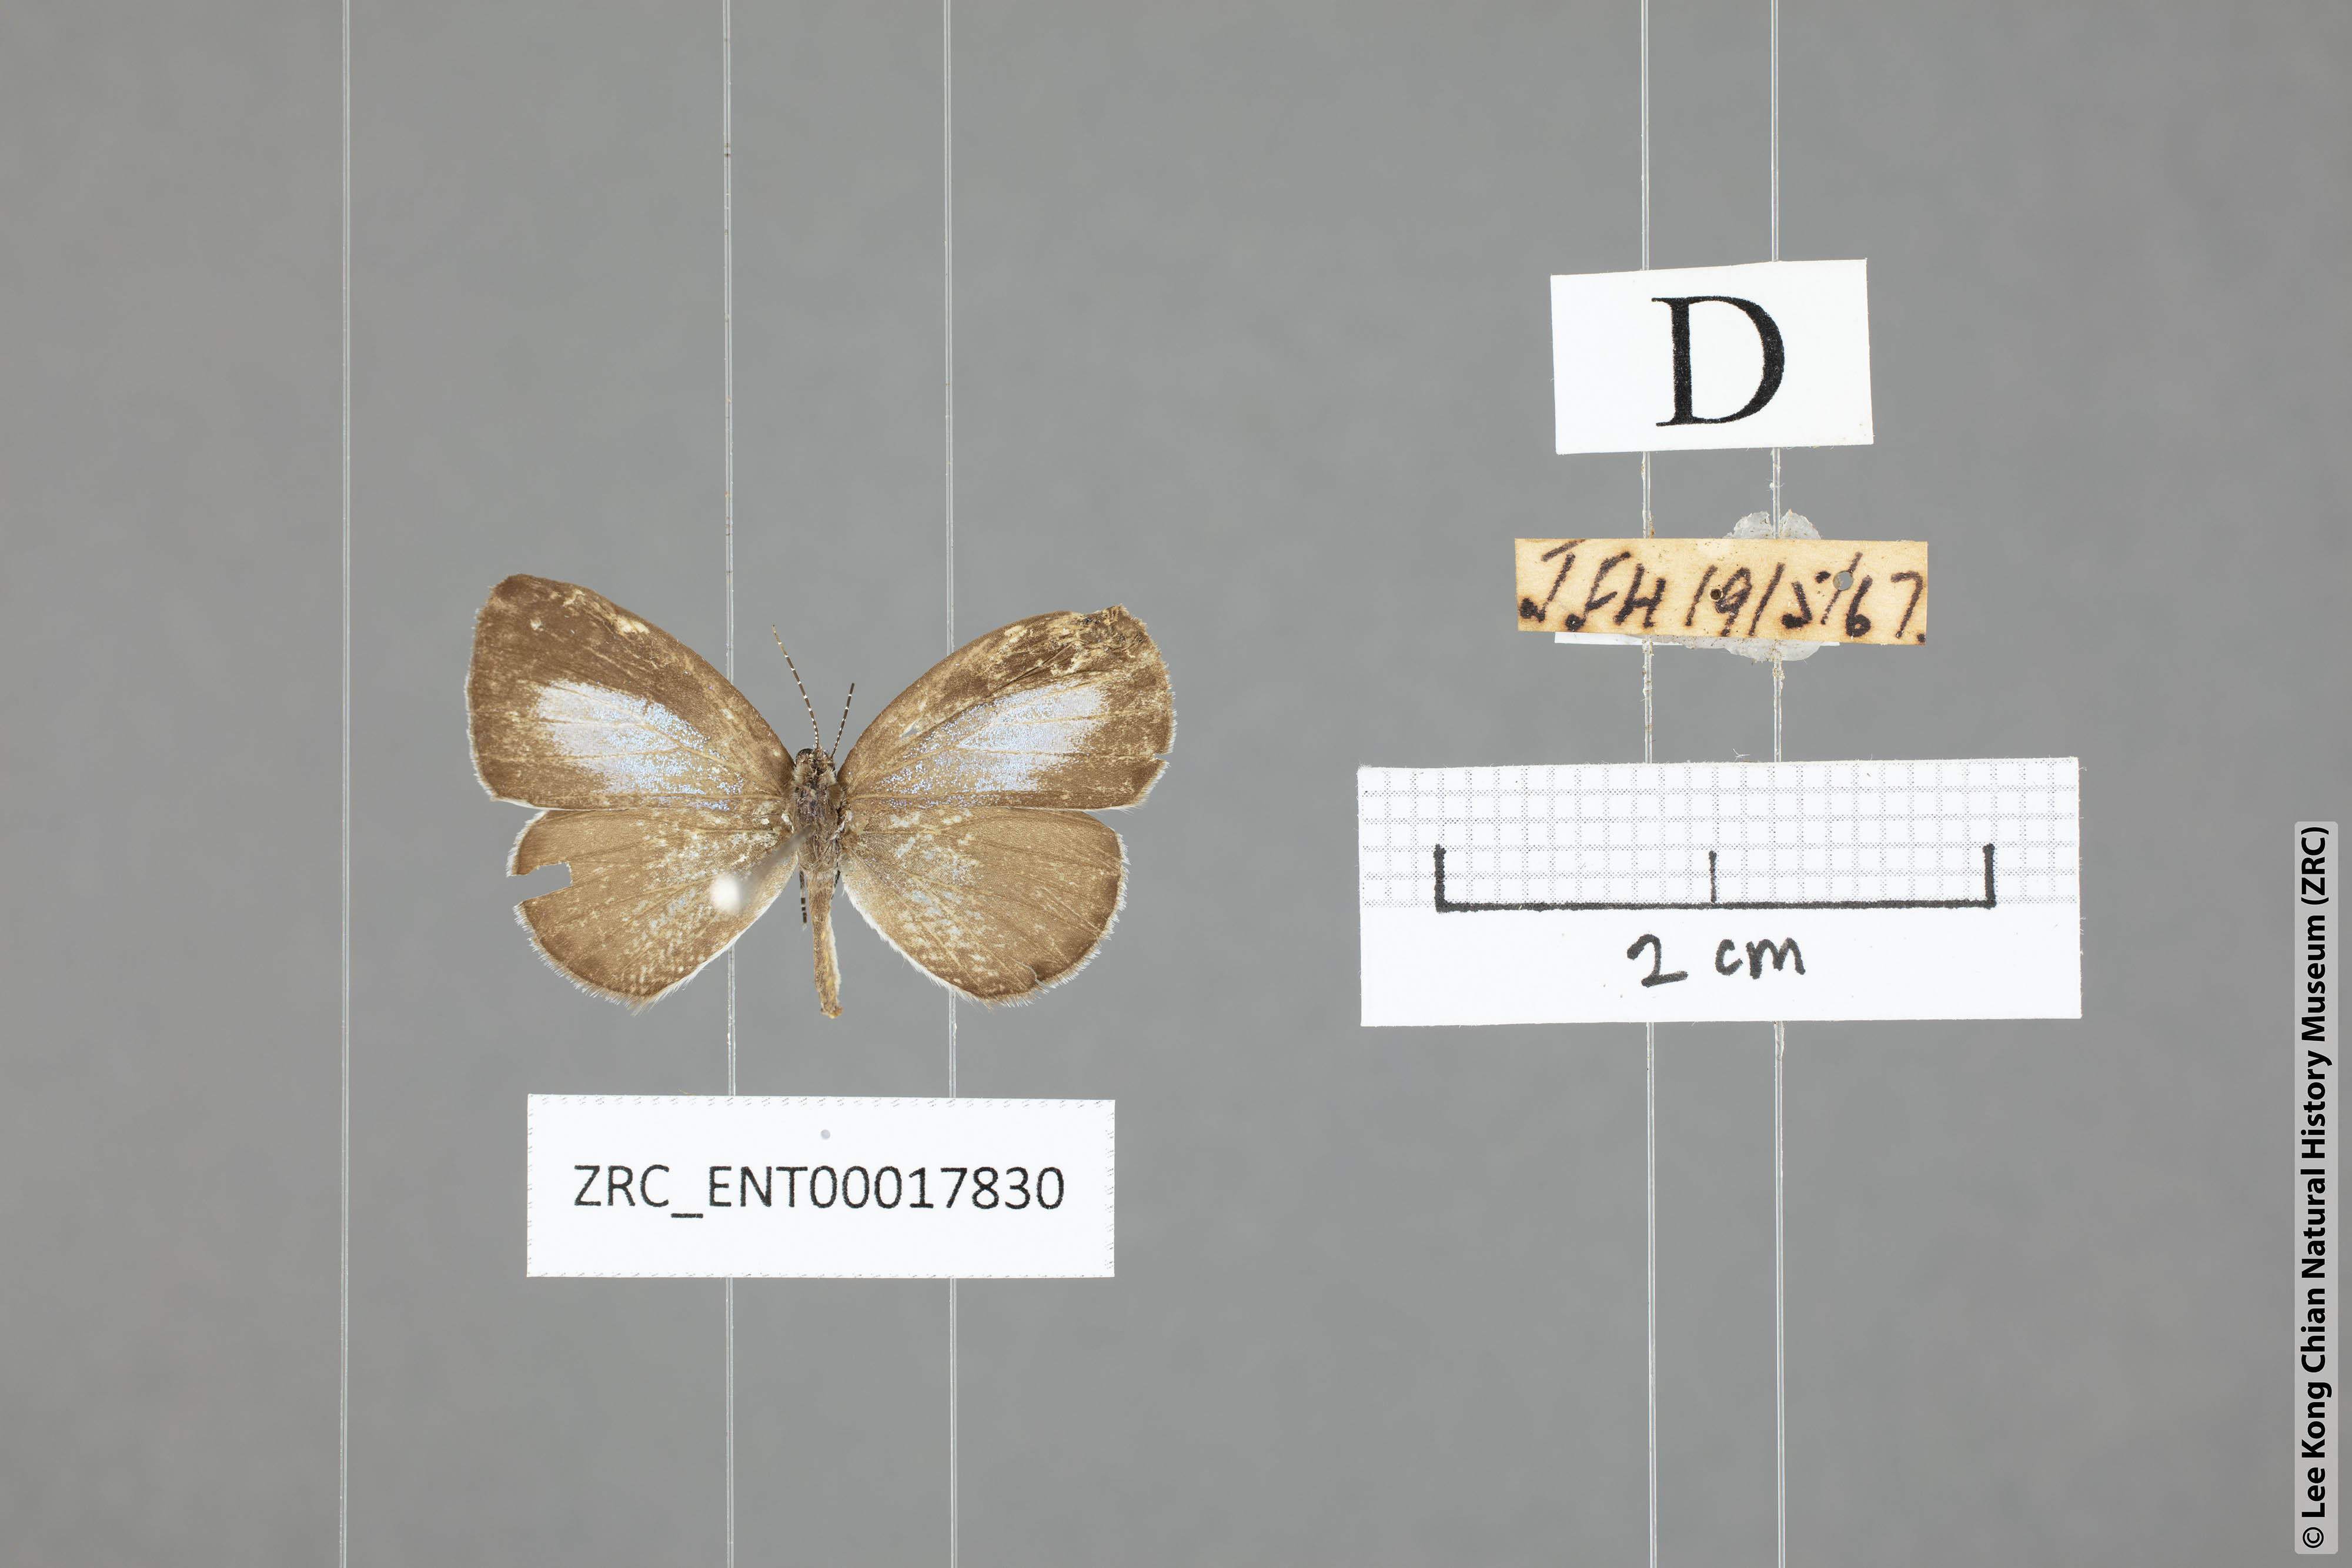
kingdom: Animalia
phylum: Arthropoda
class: Insecta
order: Lepidoptera
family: Lycaenidae
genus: Cebrella
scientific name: Cebrella
